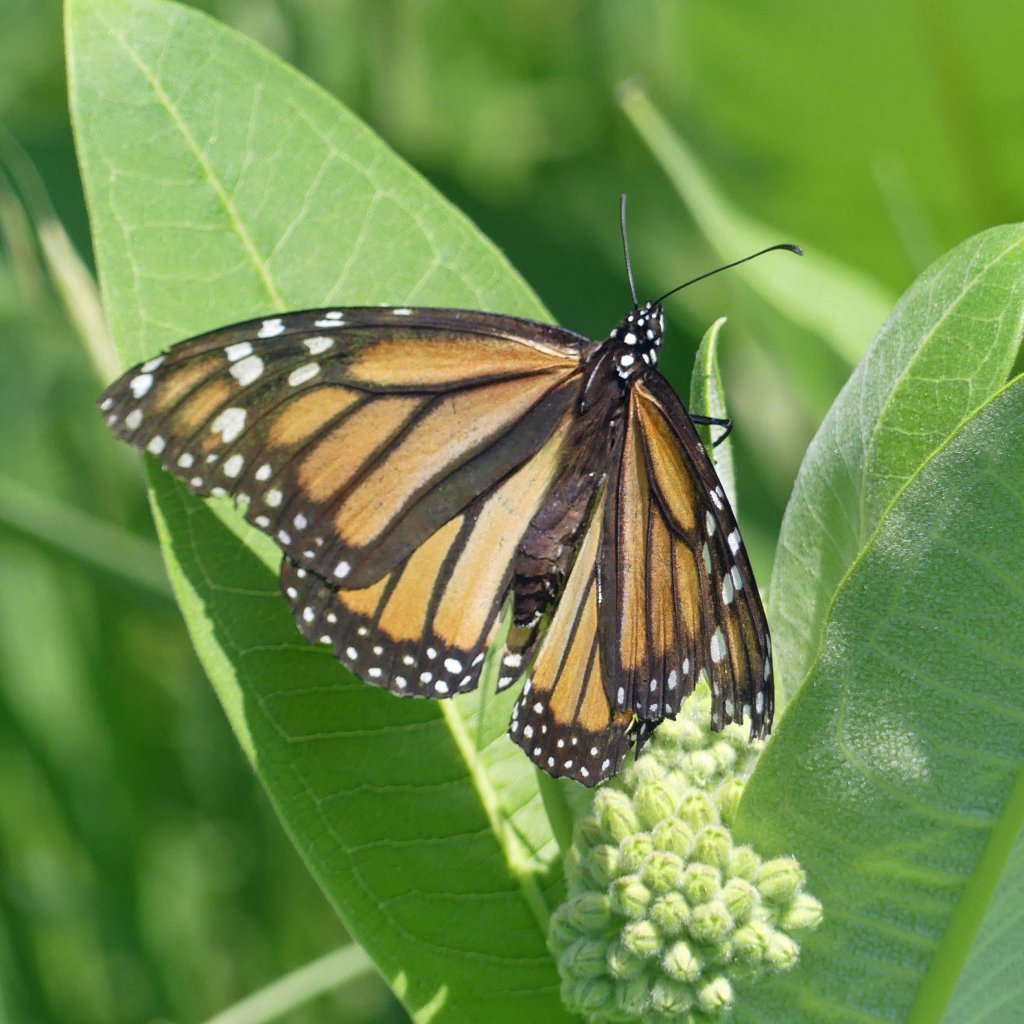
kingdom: Animalia
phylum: Arthropoda
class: Insecta
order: Lepidoptera
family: Nymphalidae
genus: Danaus
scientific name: Danaus plexippus
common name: Monarch
